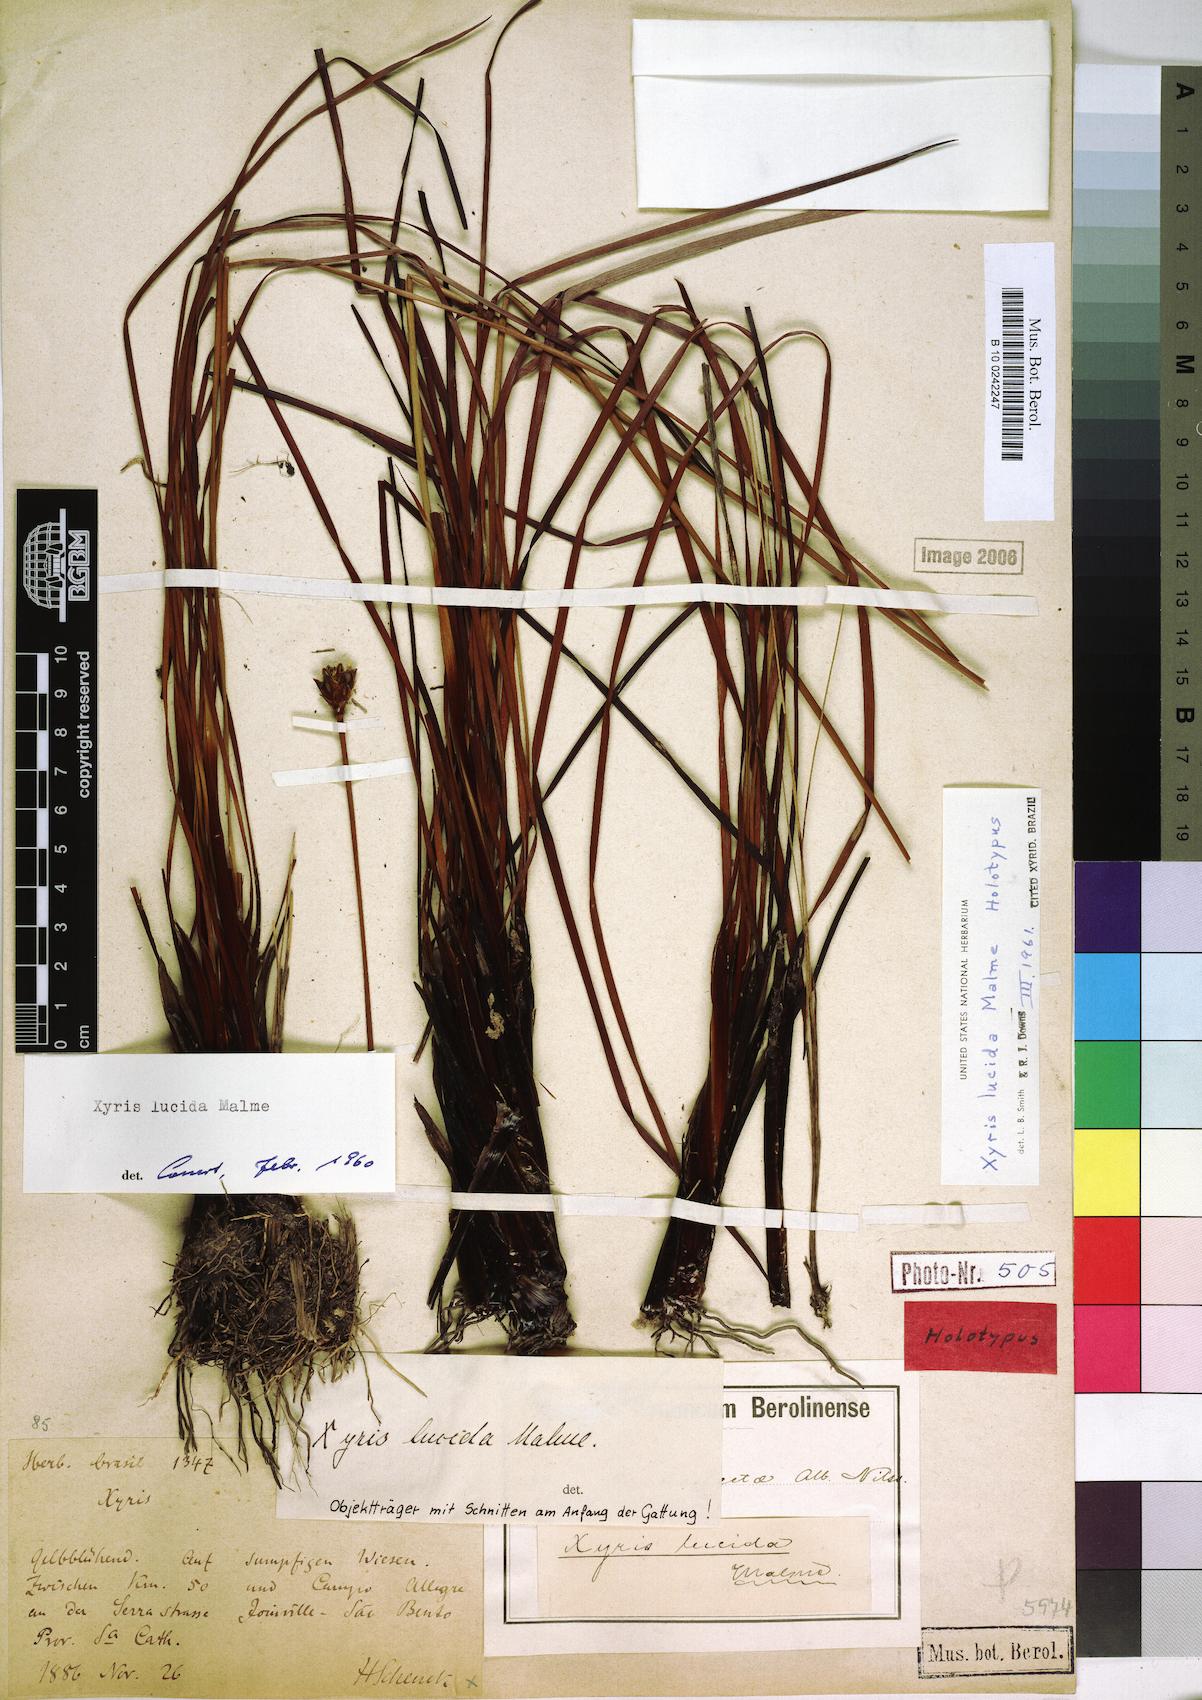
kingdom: Plantae
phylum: Tracheophyta
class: Liliopsida
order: Poales
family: Xyridaceae
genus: Xyris
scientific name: Xyris lucida
